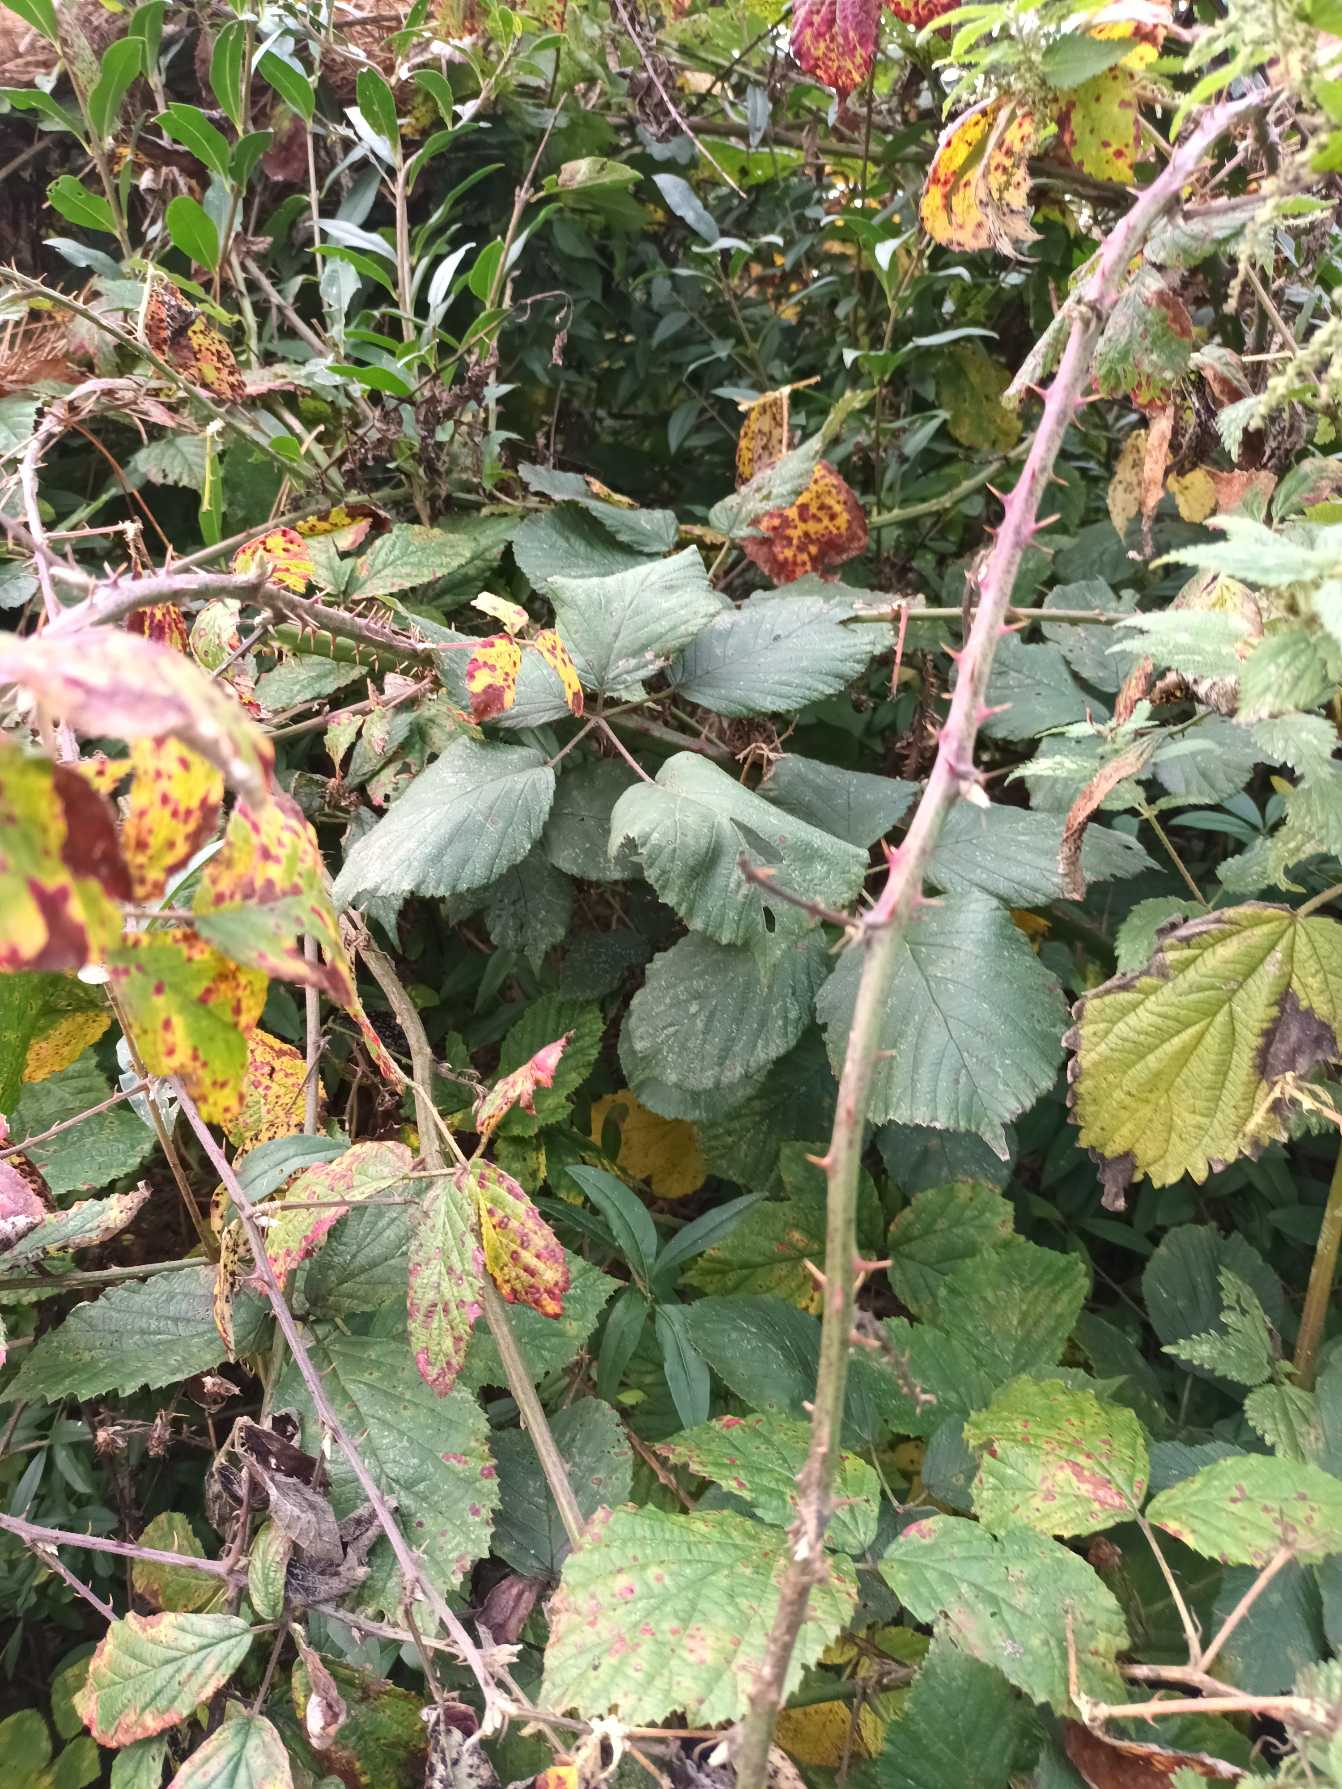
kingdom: Plantae
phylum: Tracheophyta
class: Magnoliopsida
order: Rosales
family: Rosaceae
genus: Rubus
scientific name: Rubus radula
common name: Rasperu brombær
